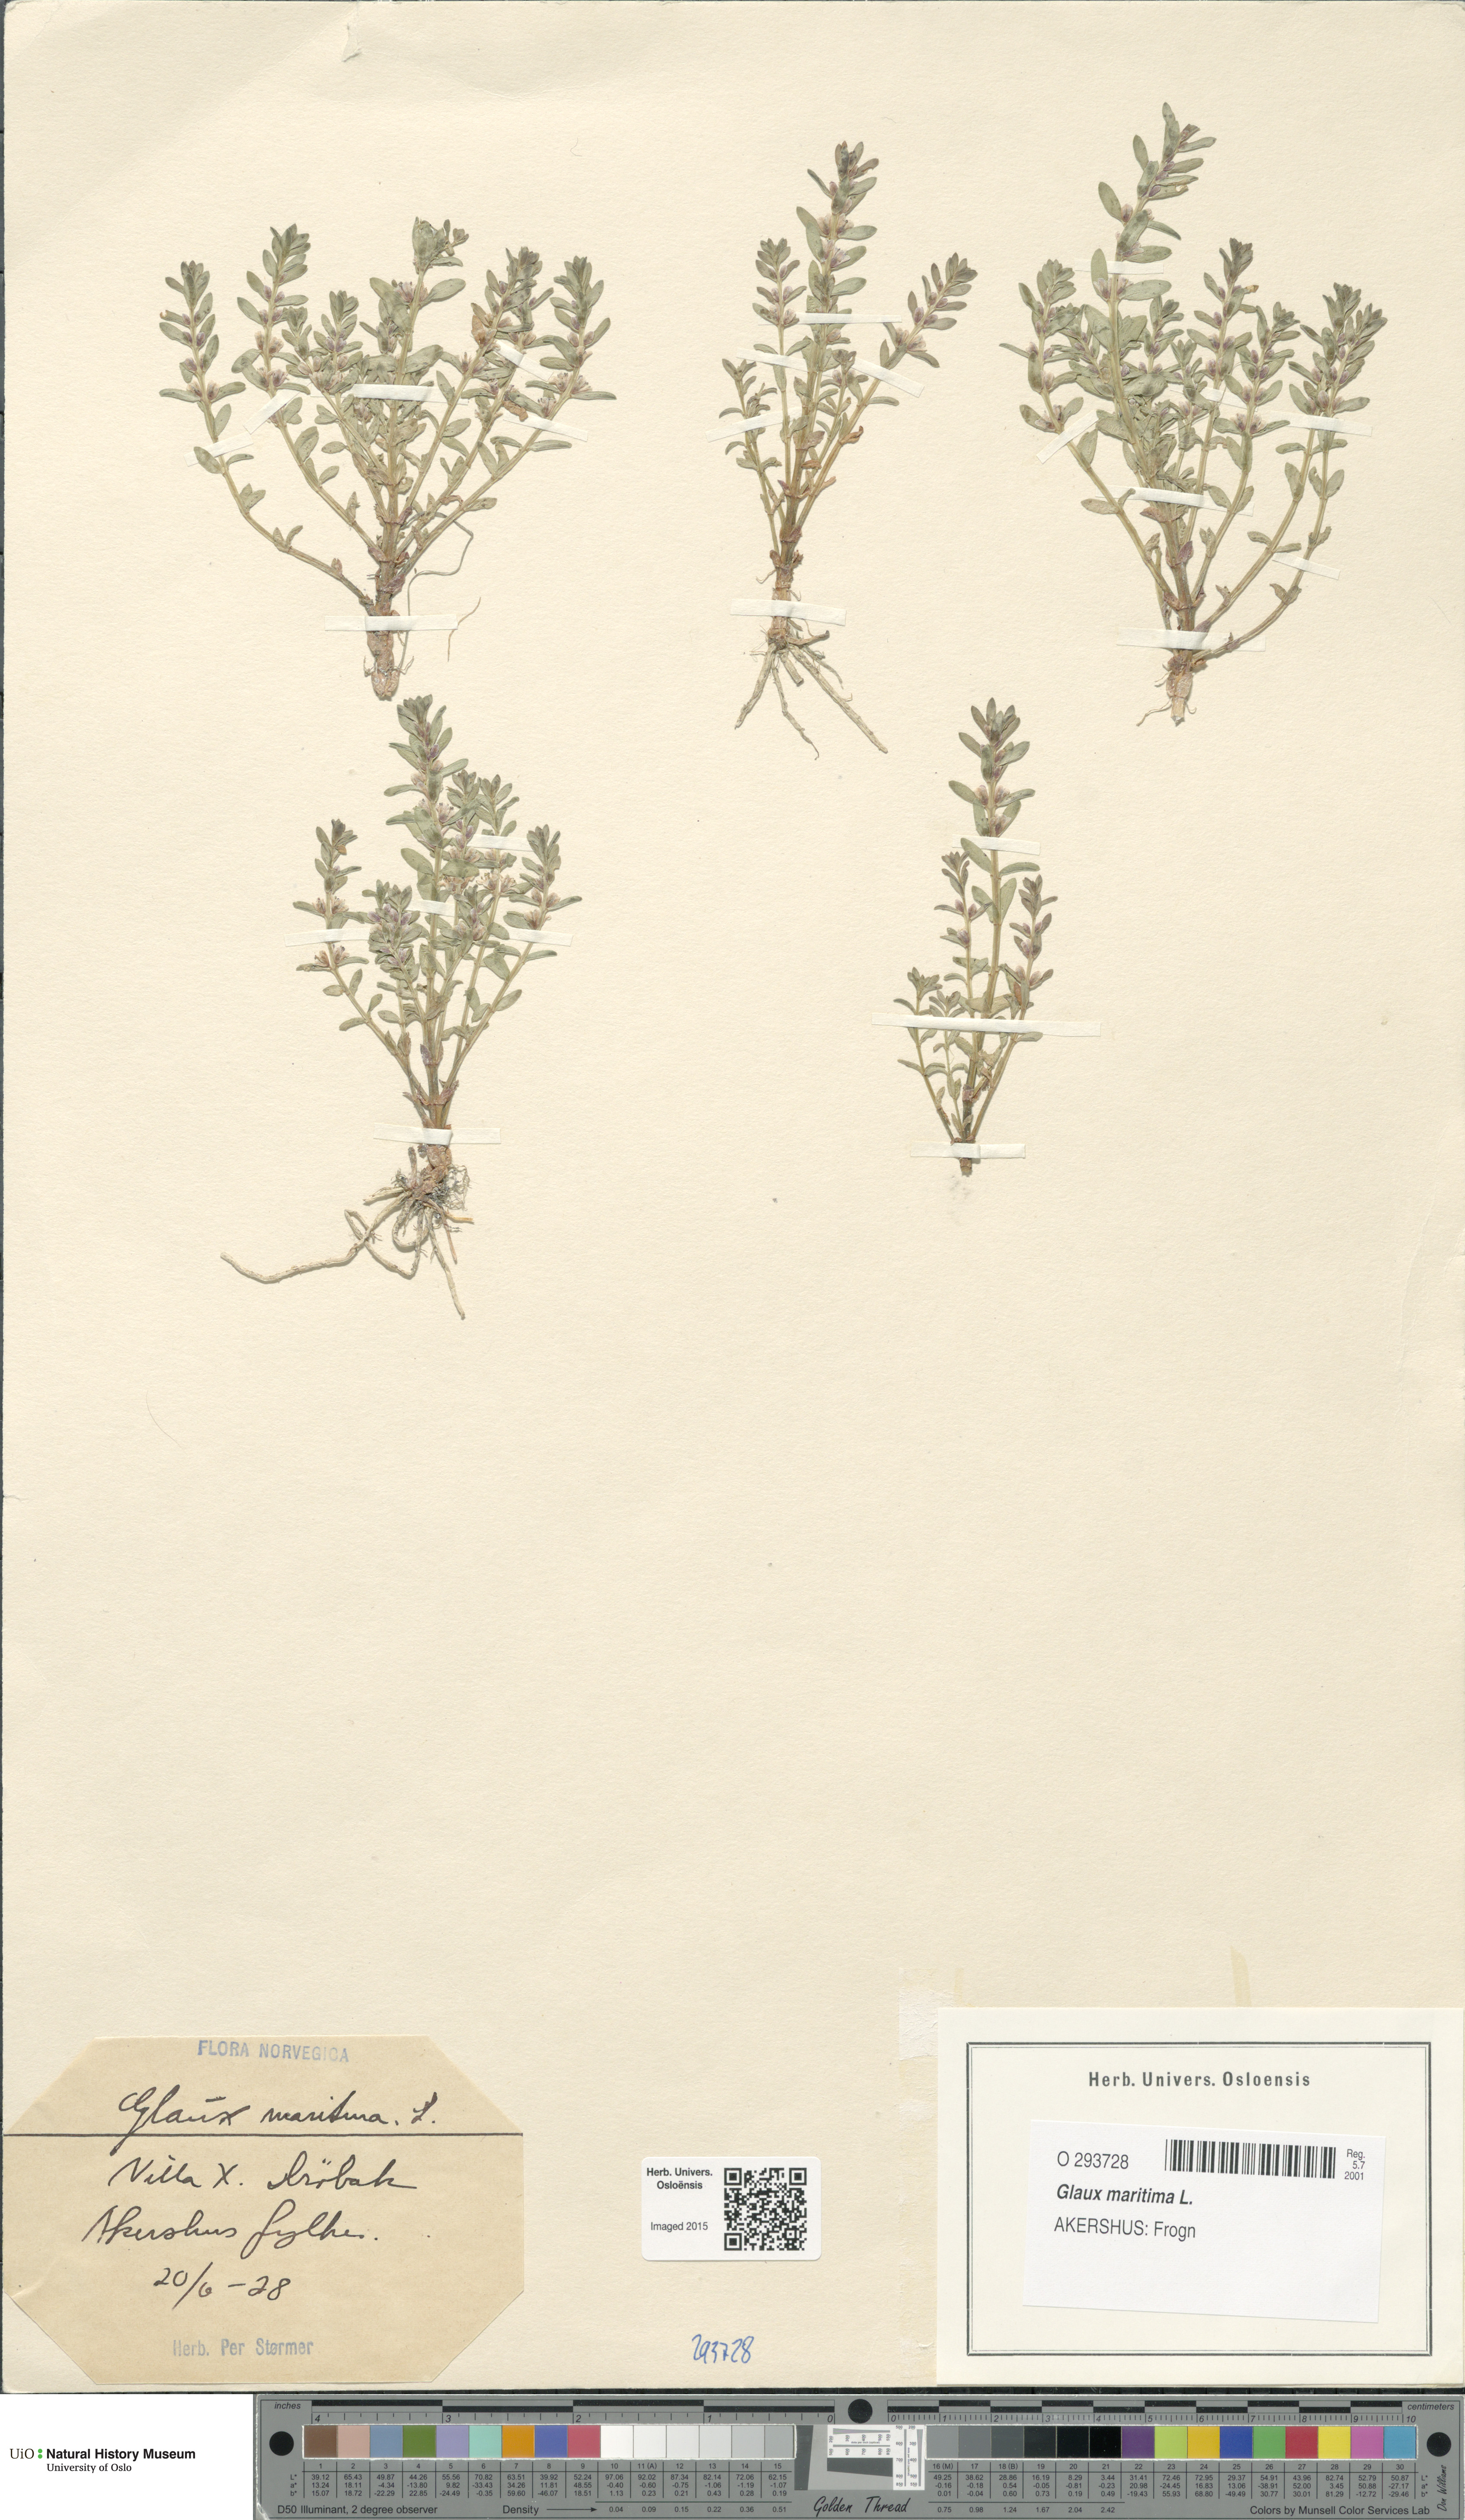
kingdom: Plantae
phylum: Tracheophyta
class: Magnoliopsida
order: Ericales
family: Primulaceae
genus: Lysimachia
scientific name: Lysimachia maritima
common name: Sea milkwort
